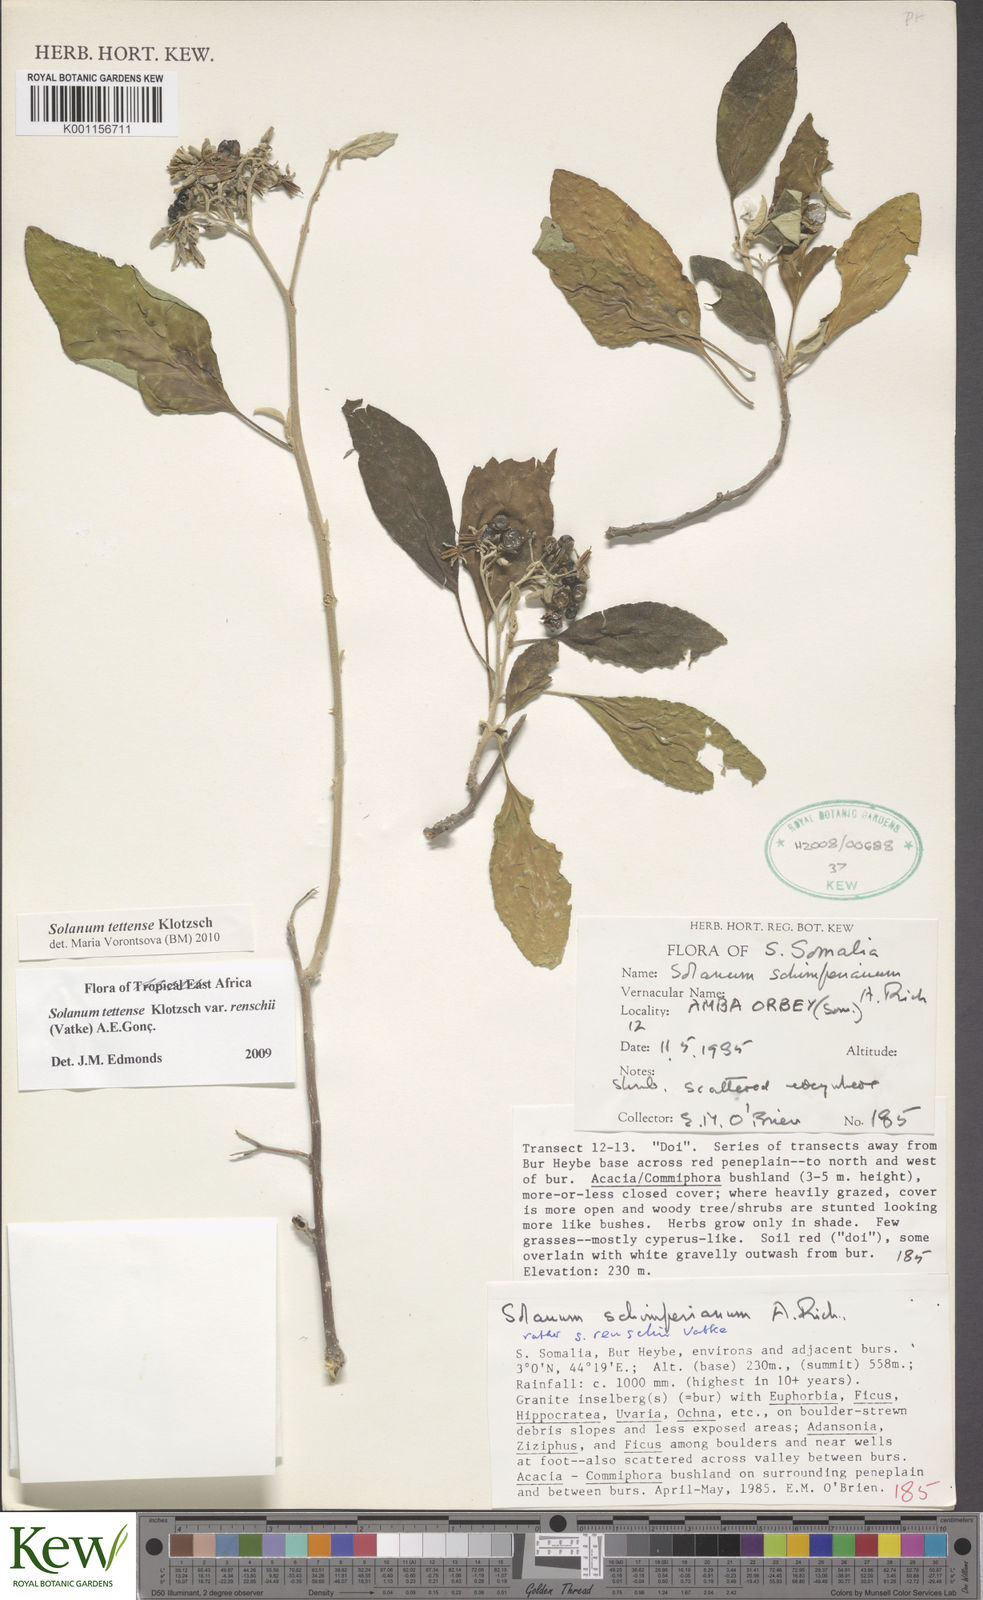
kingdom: Plantae
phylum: Tracheophyta
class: Magnoliopsida
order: Solanales
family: Solanaceae
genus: Solanum
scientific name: Solanum tettense
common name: Mozambique bitter apple
